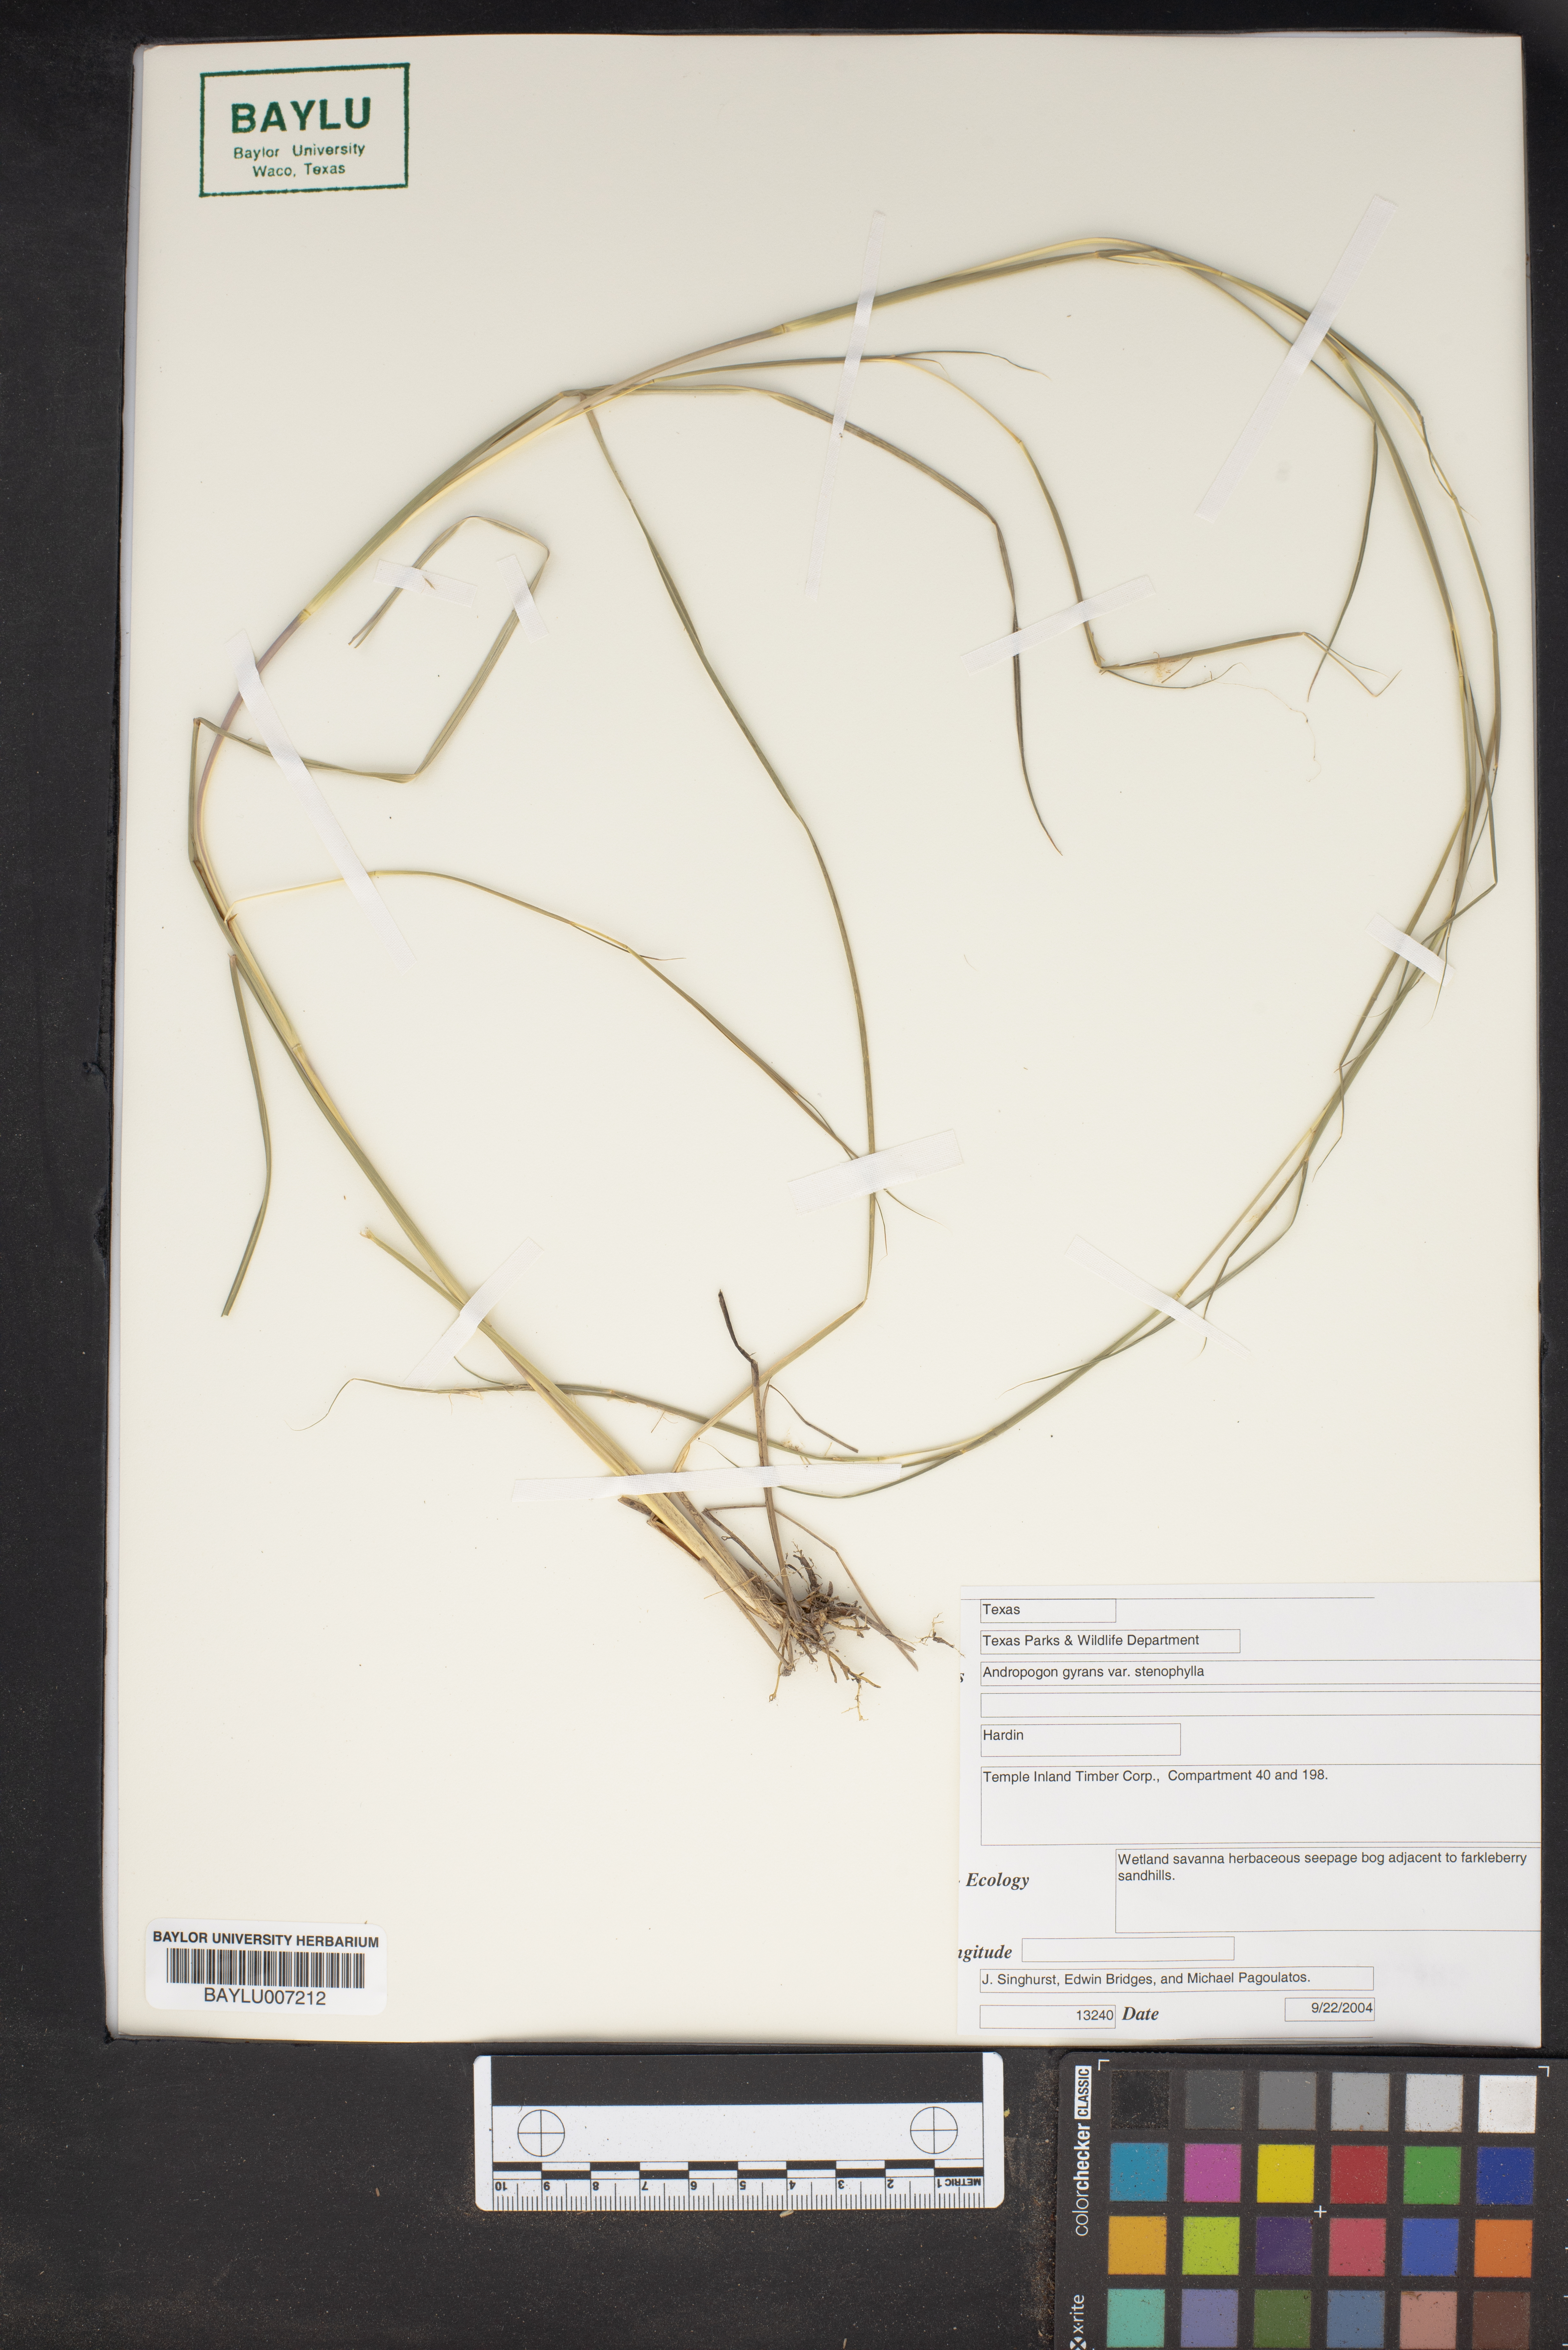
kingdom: Plantae
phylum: Tracheophyta
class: Liliopsida
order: Poales
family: Poaceae
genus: Andropogon
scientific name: Andropogon gyrans
